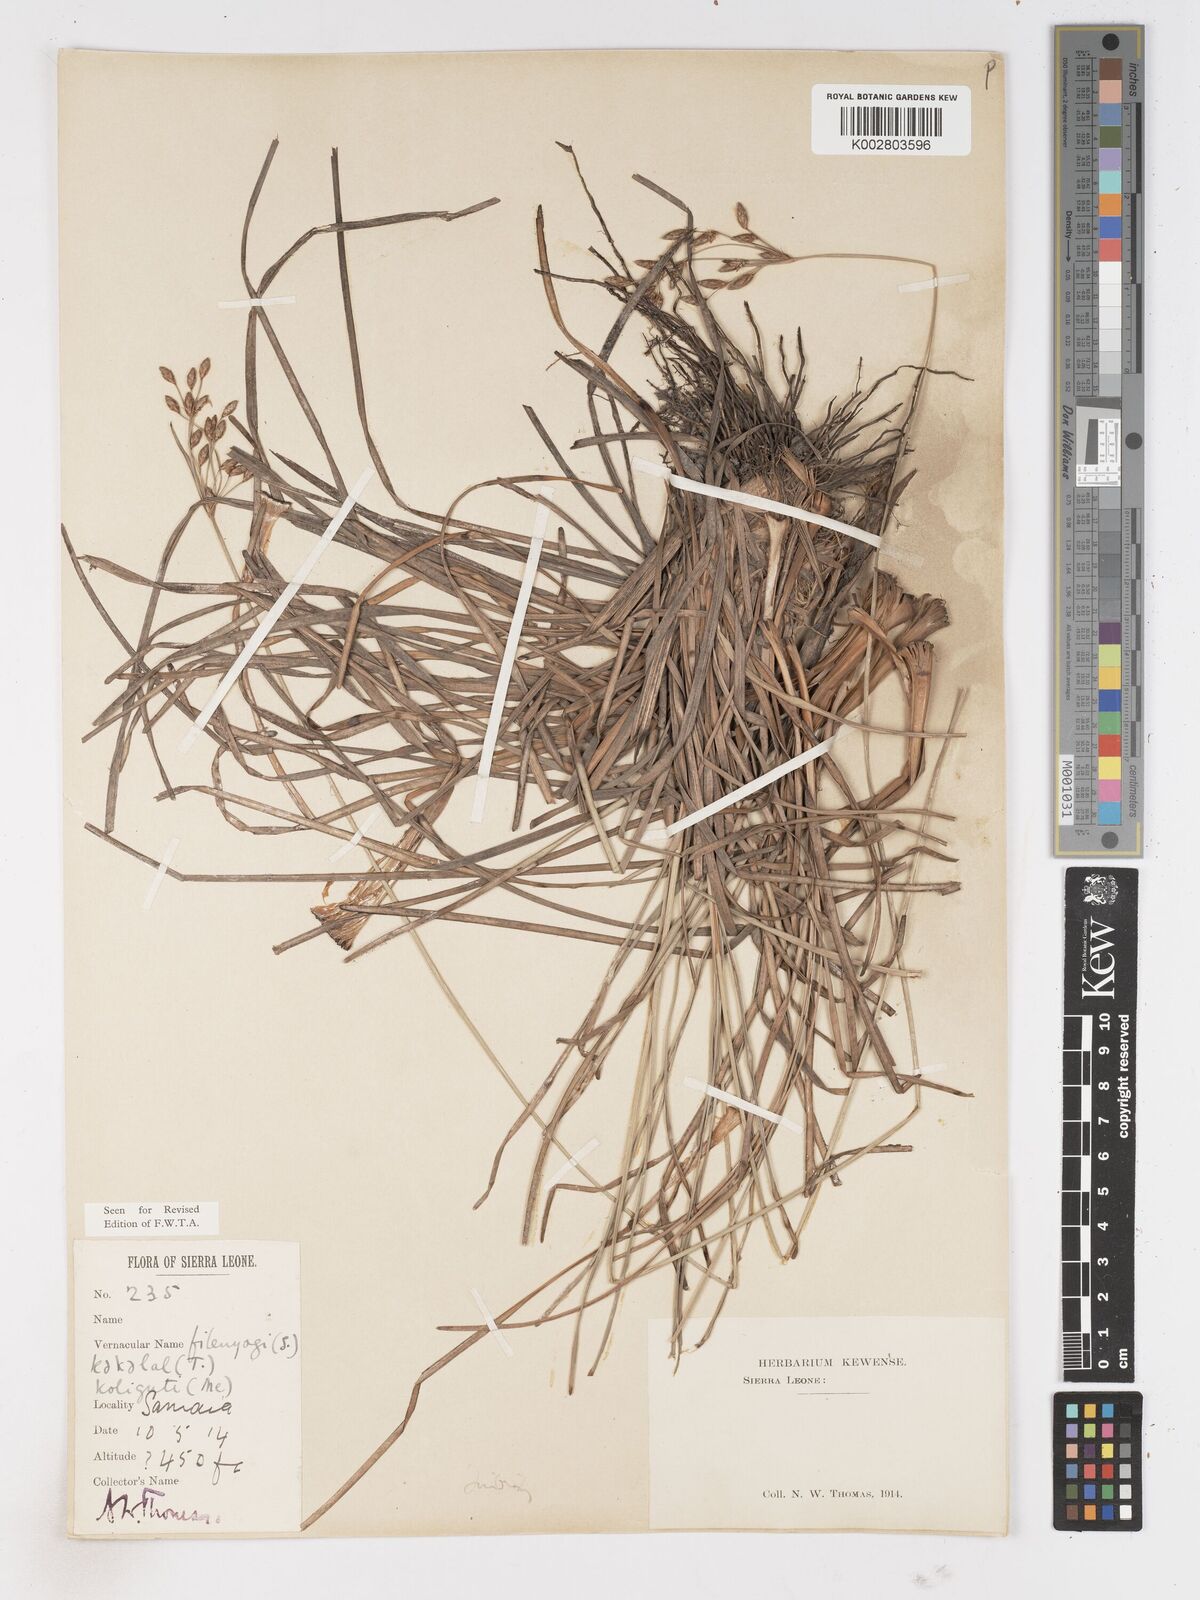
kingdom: Plantae
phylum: Tracheophyta
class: Liliopsida
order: Poales
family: Cyperaceae
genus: Fimbristylis
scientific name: Fimbristylis dichotoma
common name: Forked fimbry
